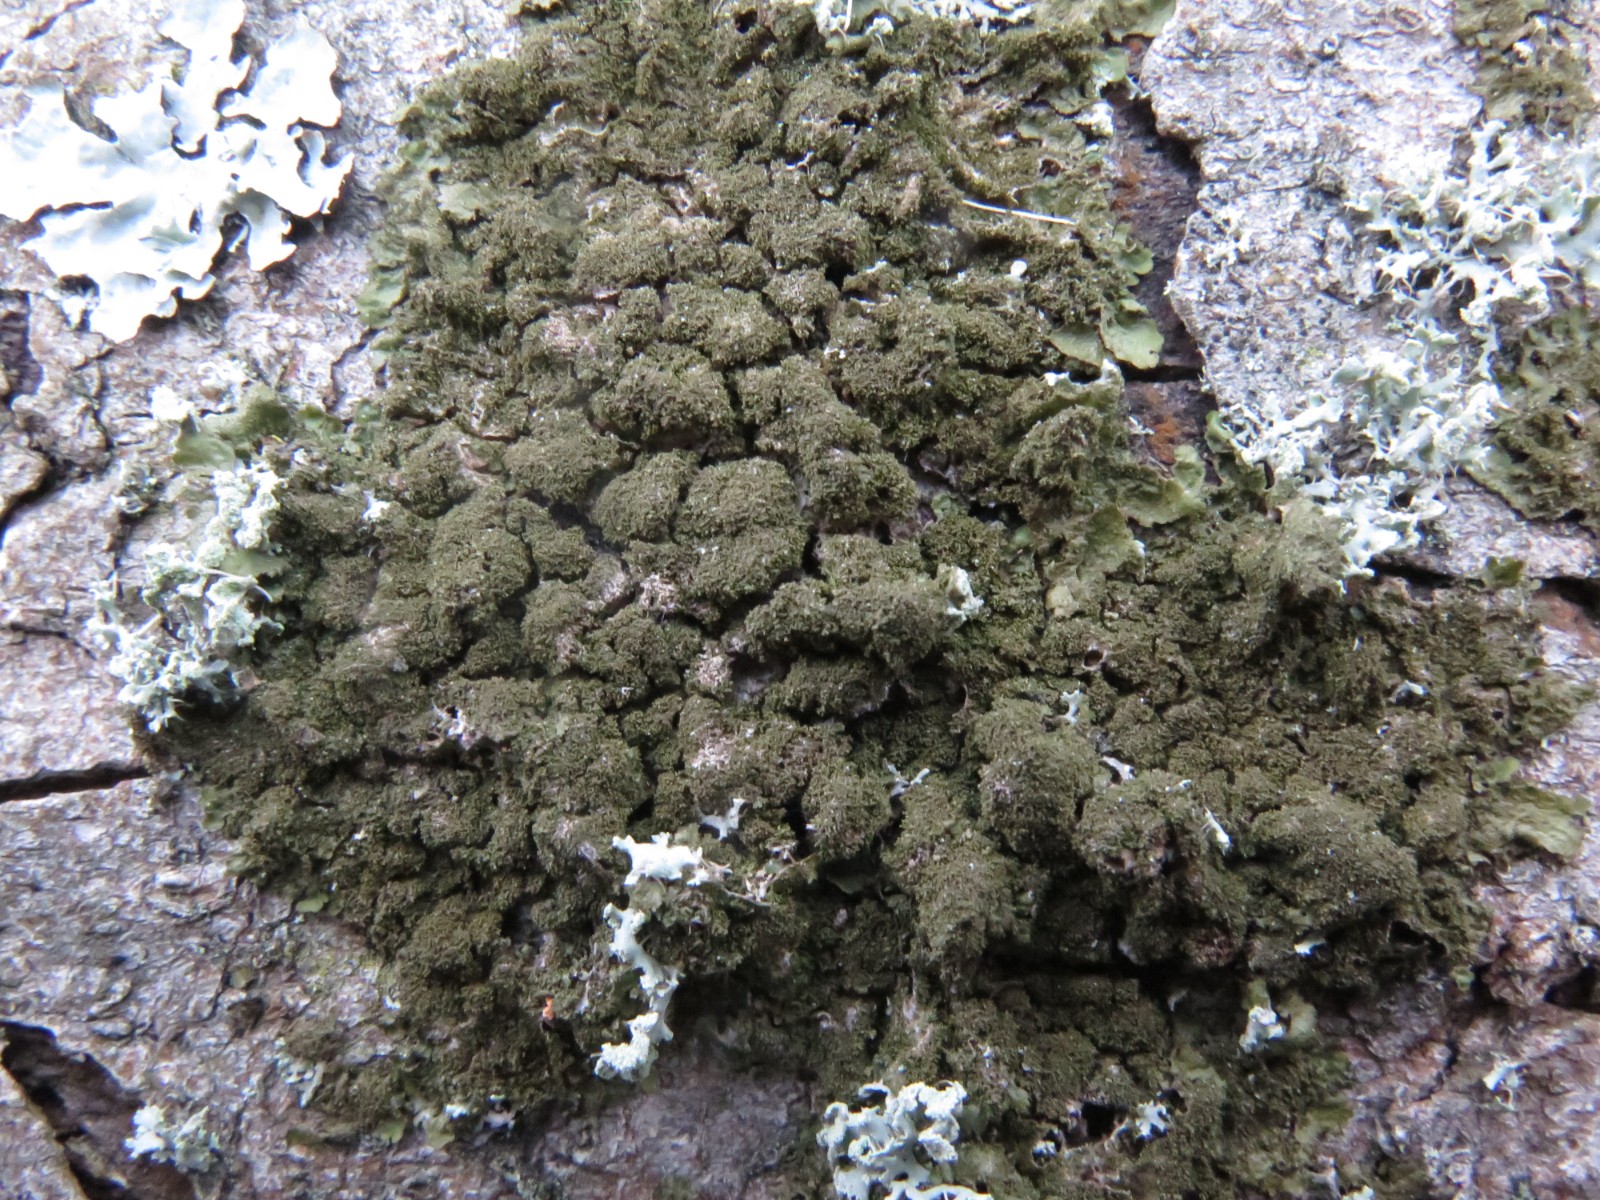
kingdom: Fungi
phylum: Ascomycota
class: Lecanoromycetes
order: Lecanorales
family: Parmeliaceae
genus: Melanohalea
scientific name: Melanohalea exasperatula
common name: kølle-skållav
